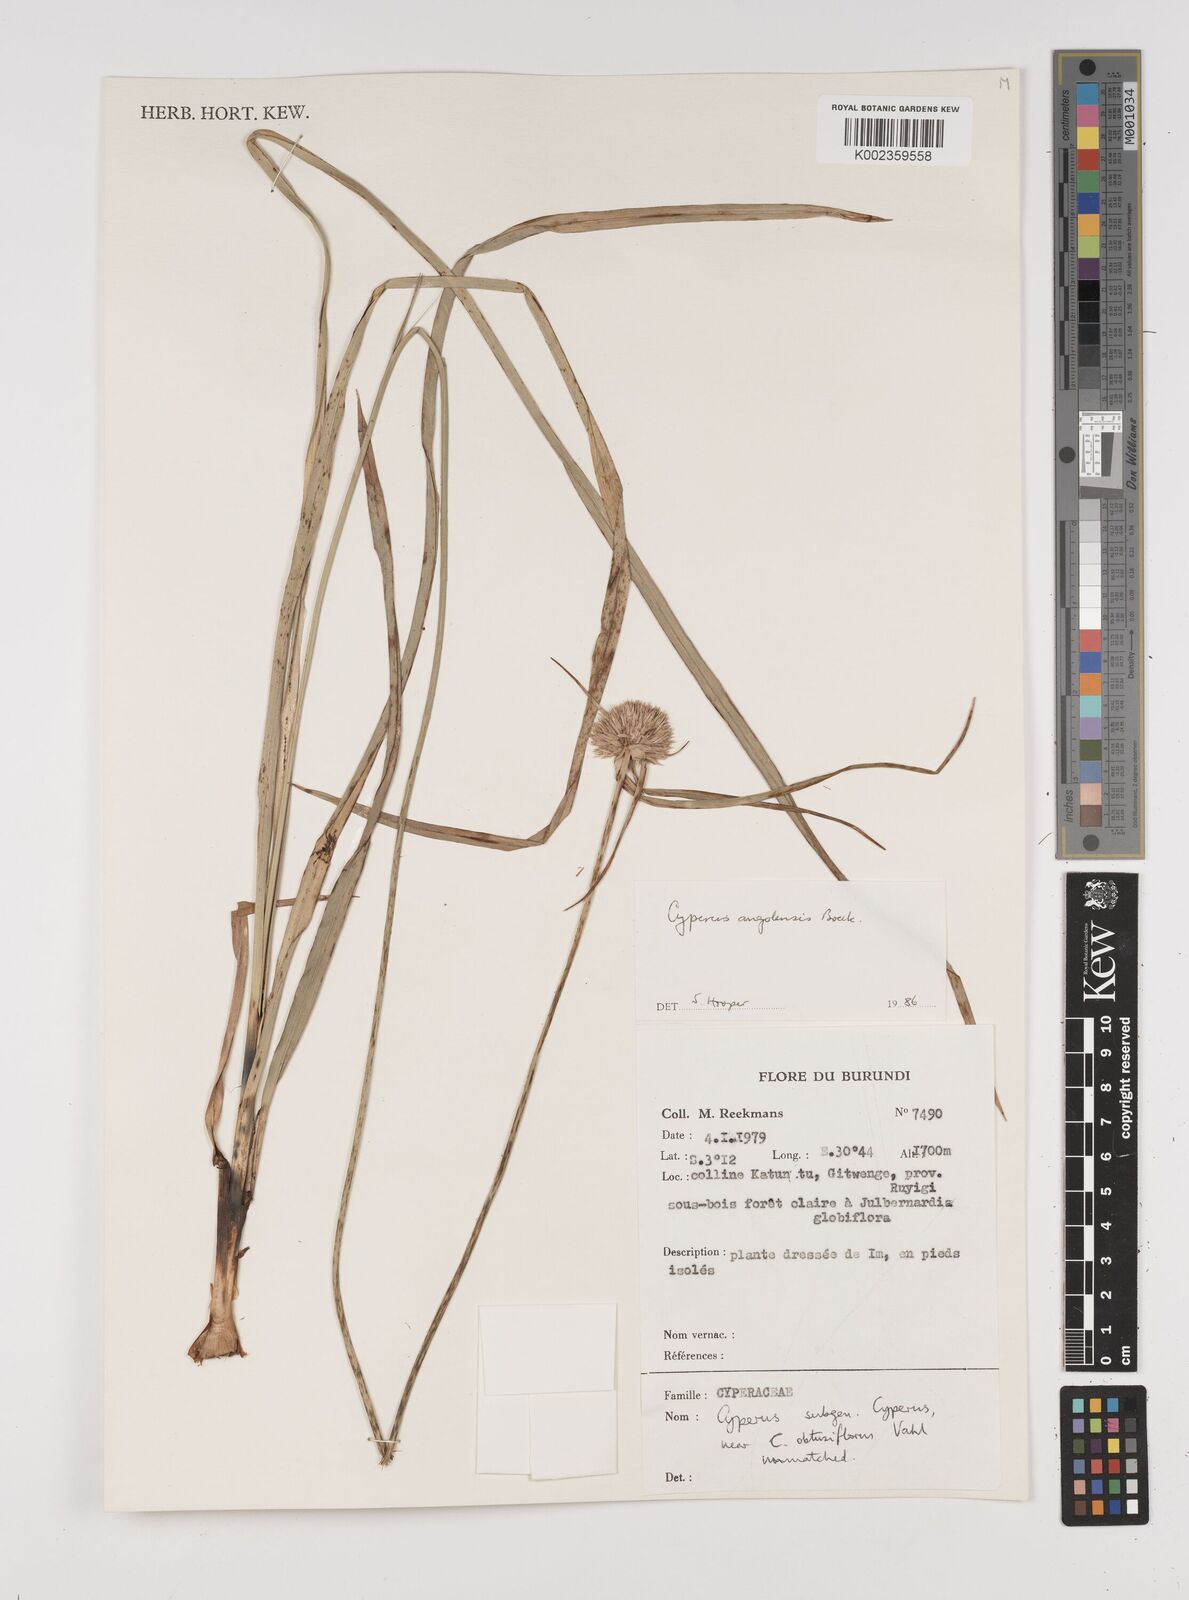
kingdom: Plantae
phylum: Tracheophyta
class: Liliopsida
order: Poales
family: Cyperaceae
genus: Cyperus
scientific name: Cyperus angolensis
